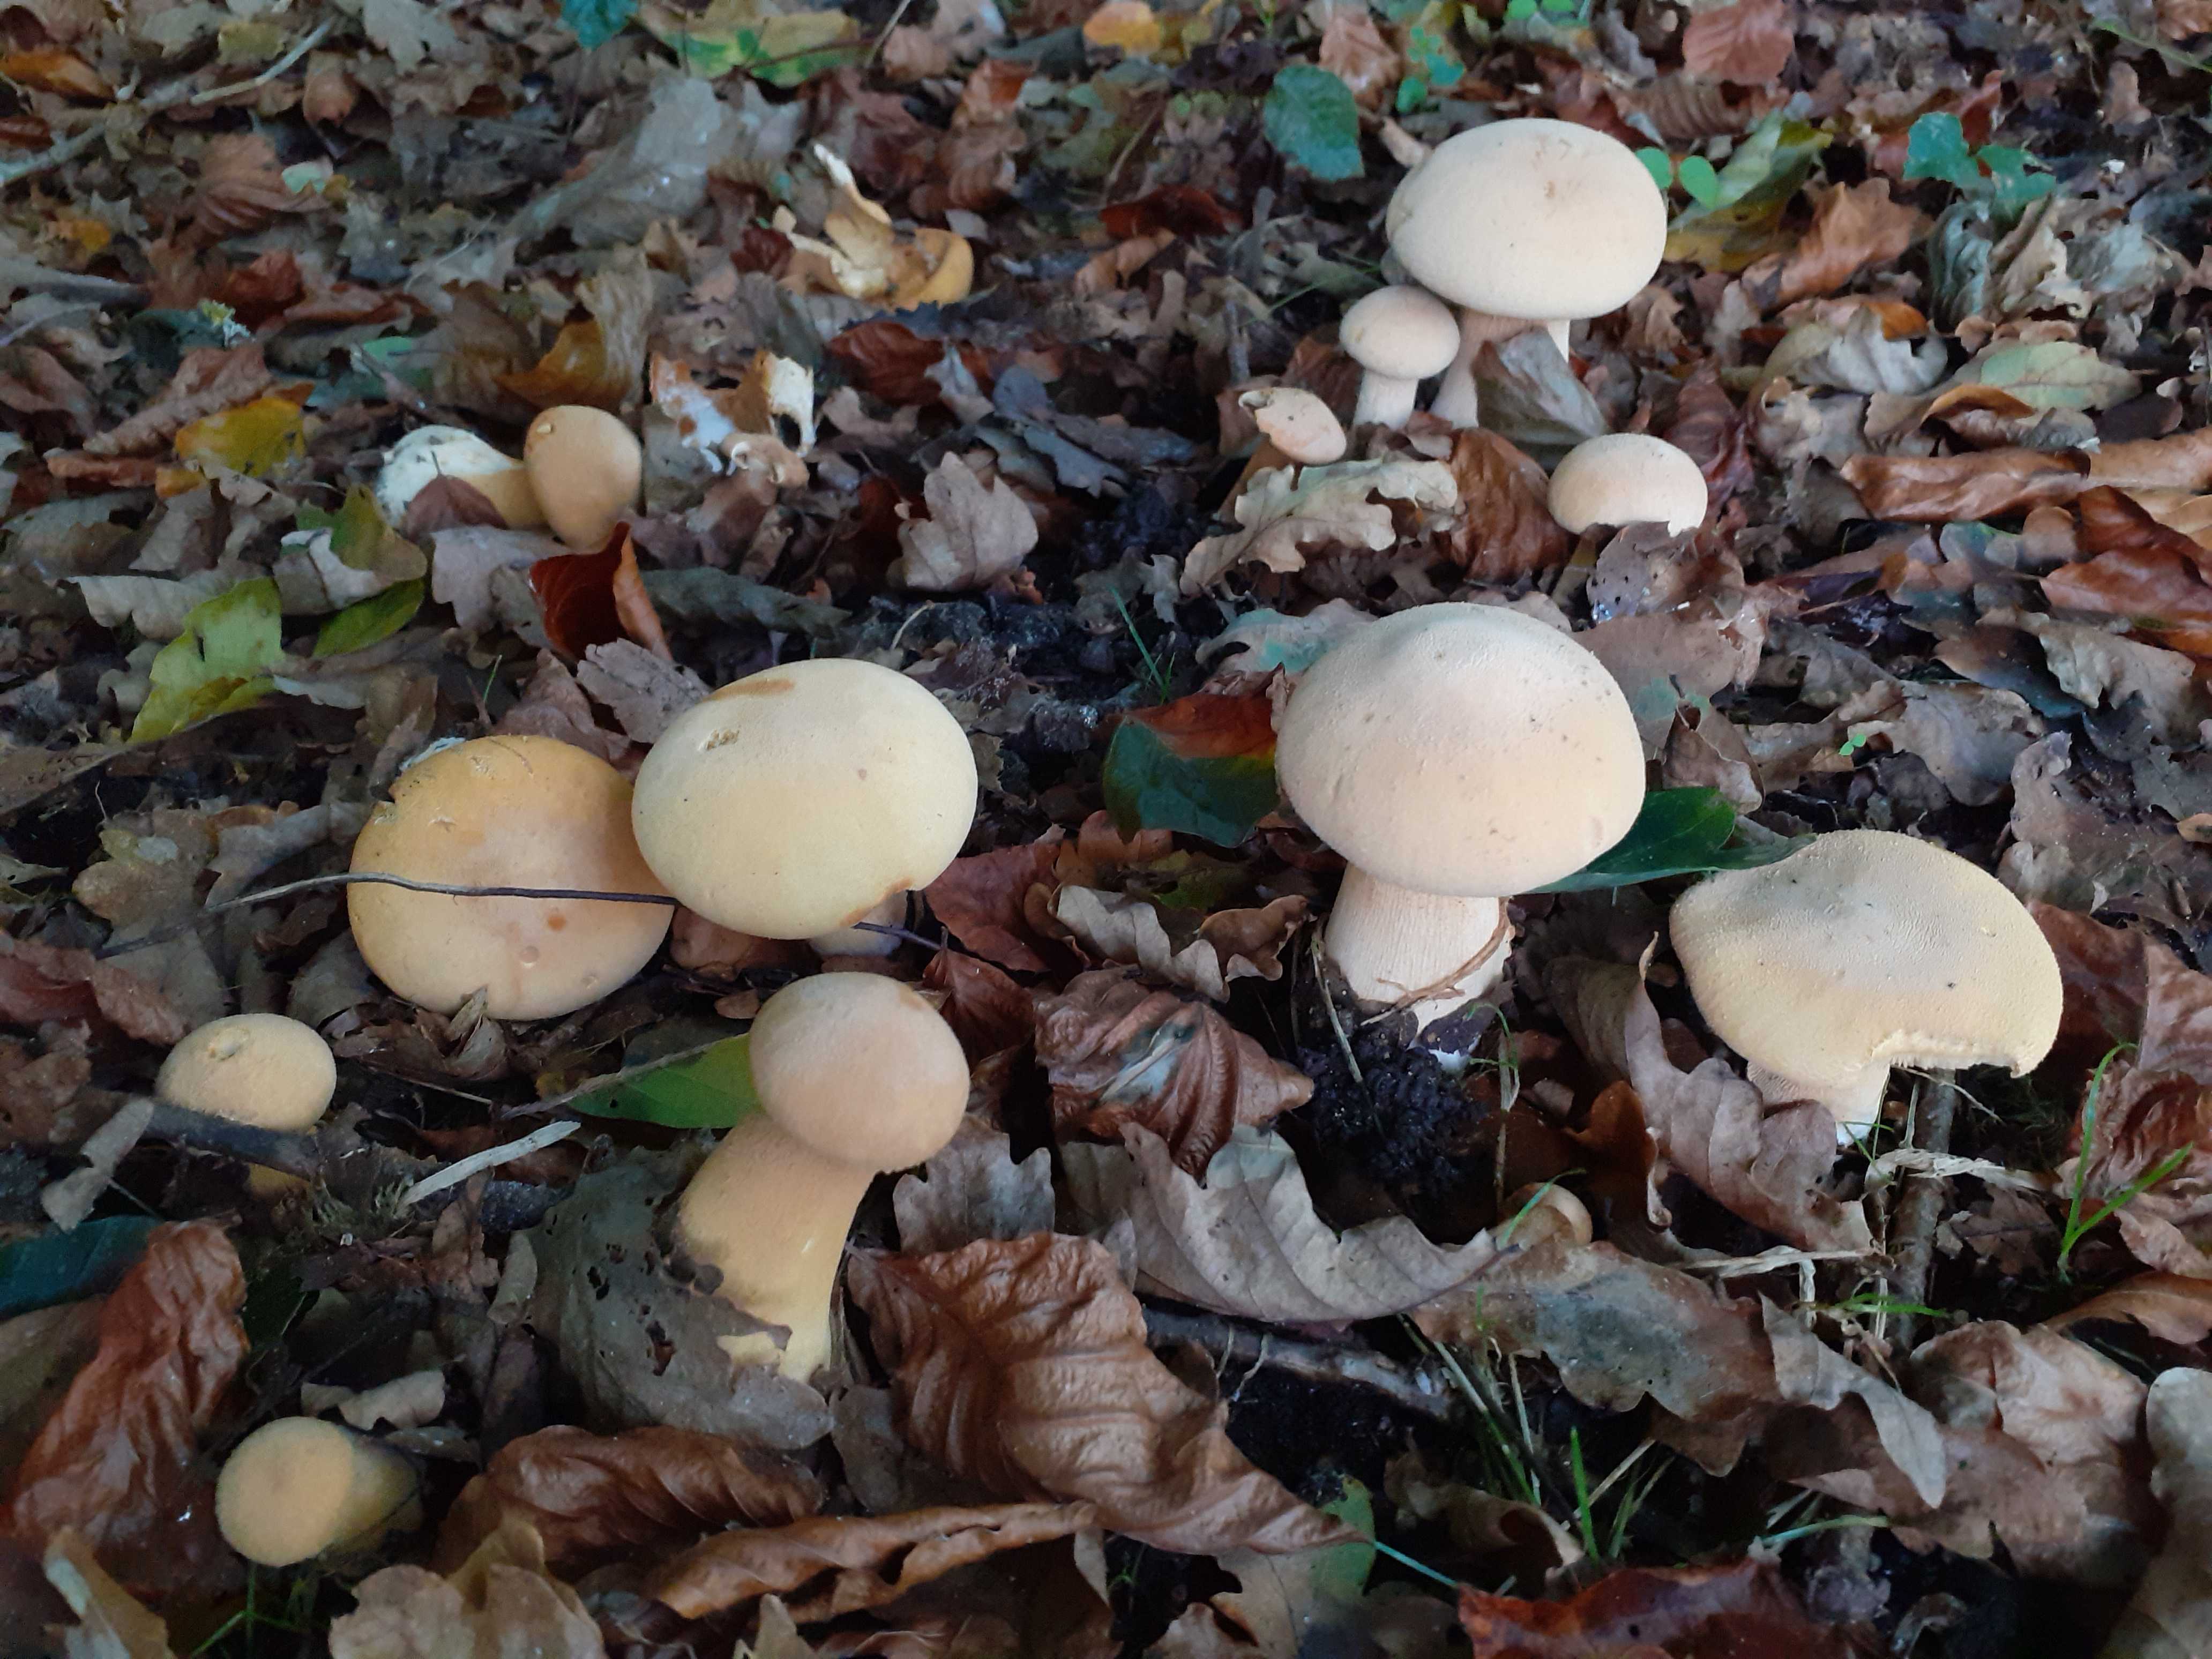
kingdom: Fungi
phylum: Basidiomycota
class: Agaricomycetes
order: Agaricales
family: Tricholomataceae
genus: Phaeolepiota
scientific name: Phaeolepiota aurea
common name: gyldenhat
